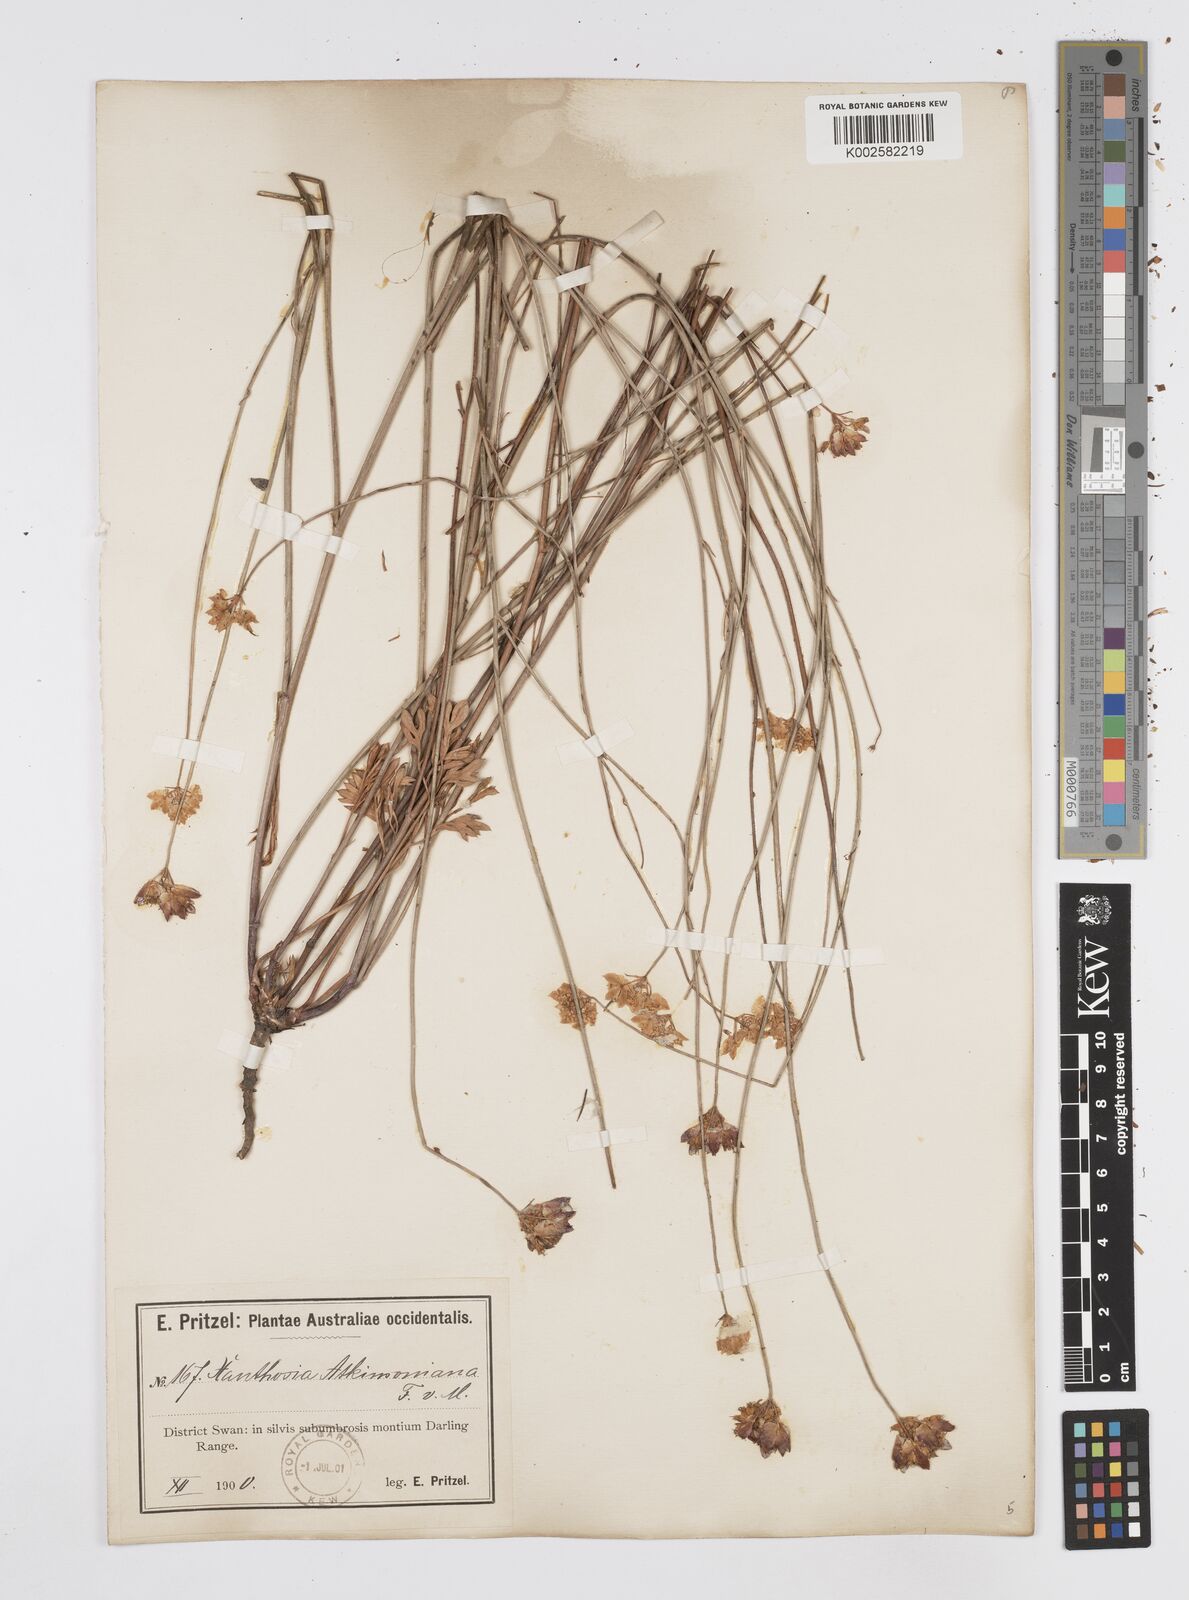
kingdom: Plantae
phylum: Tracheophyta
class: Magnoliopsida
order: Apiales
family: Apiaceae
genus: Xanthosia
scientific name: Xanthosia atkinsoniana
